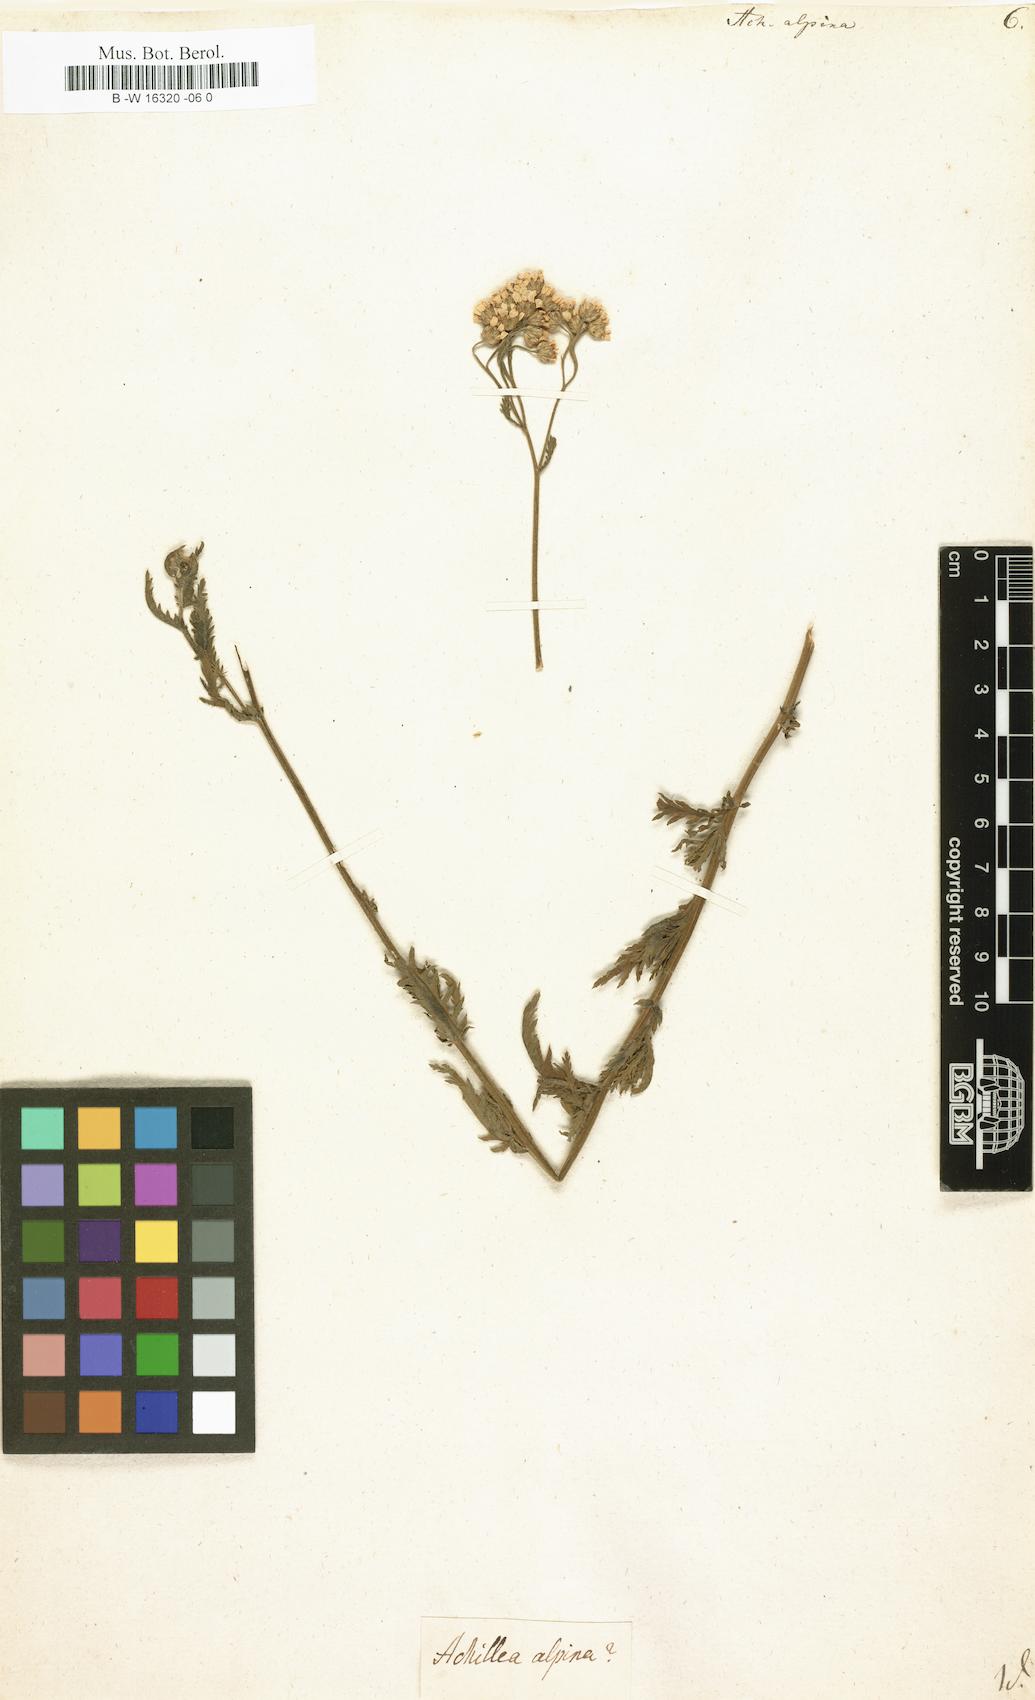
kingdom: Plantae
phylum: Tracheophyta
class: Magnoliopsida
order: Asterales
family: Asteraceae
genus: Achillea
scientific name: Achillea alpina
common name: Siberian yarrow
